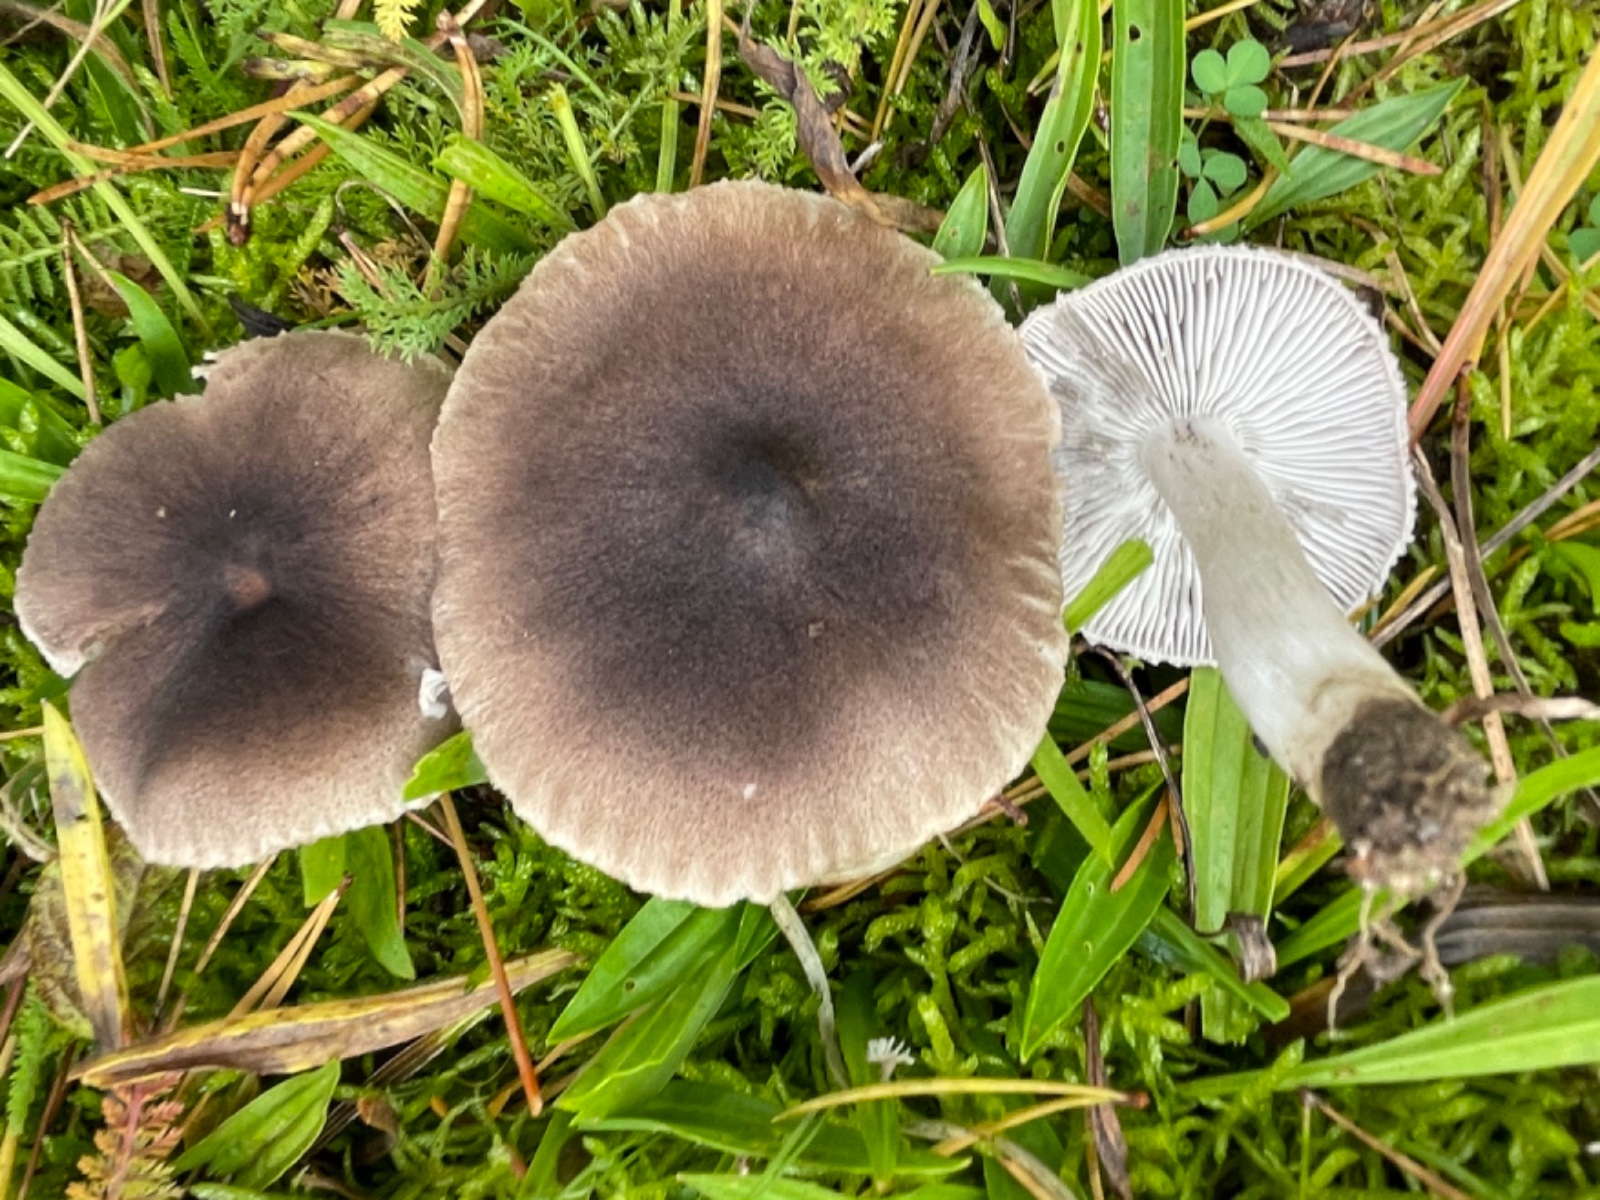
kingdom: Fungi
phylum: Basidiomycota
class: Agaricomycetes
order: Agaricales
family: Tricholomataceae
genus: Tricholoma
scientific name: Tricholoma terreum
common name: jordfarvet ridderhat
